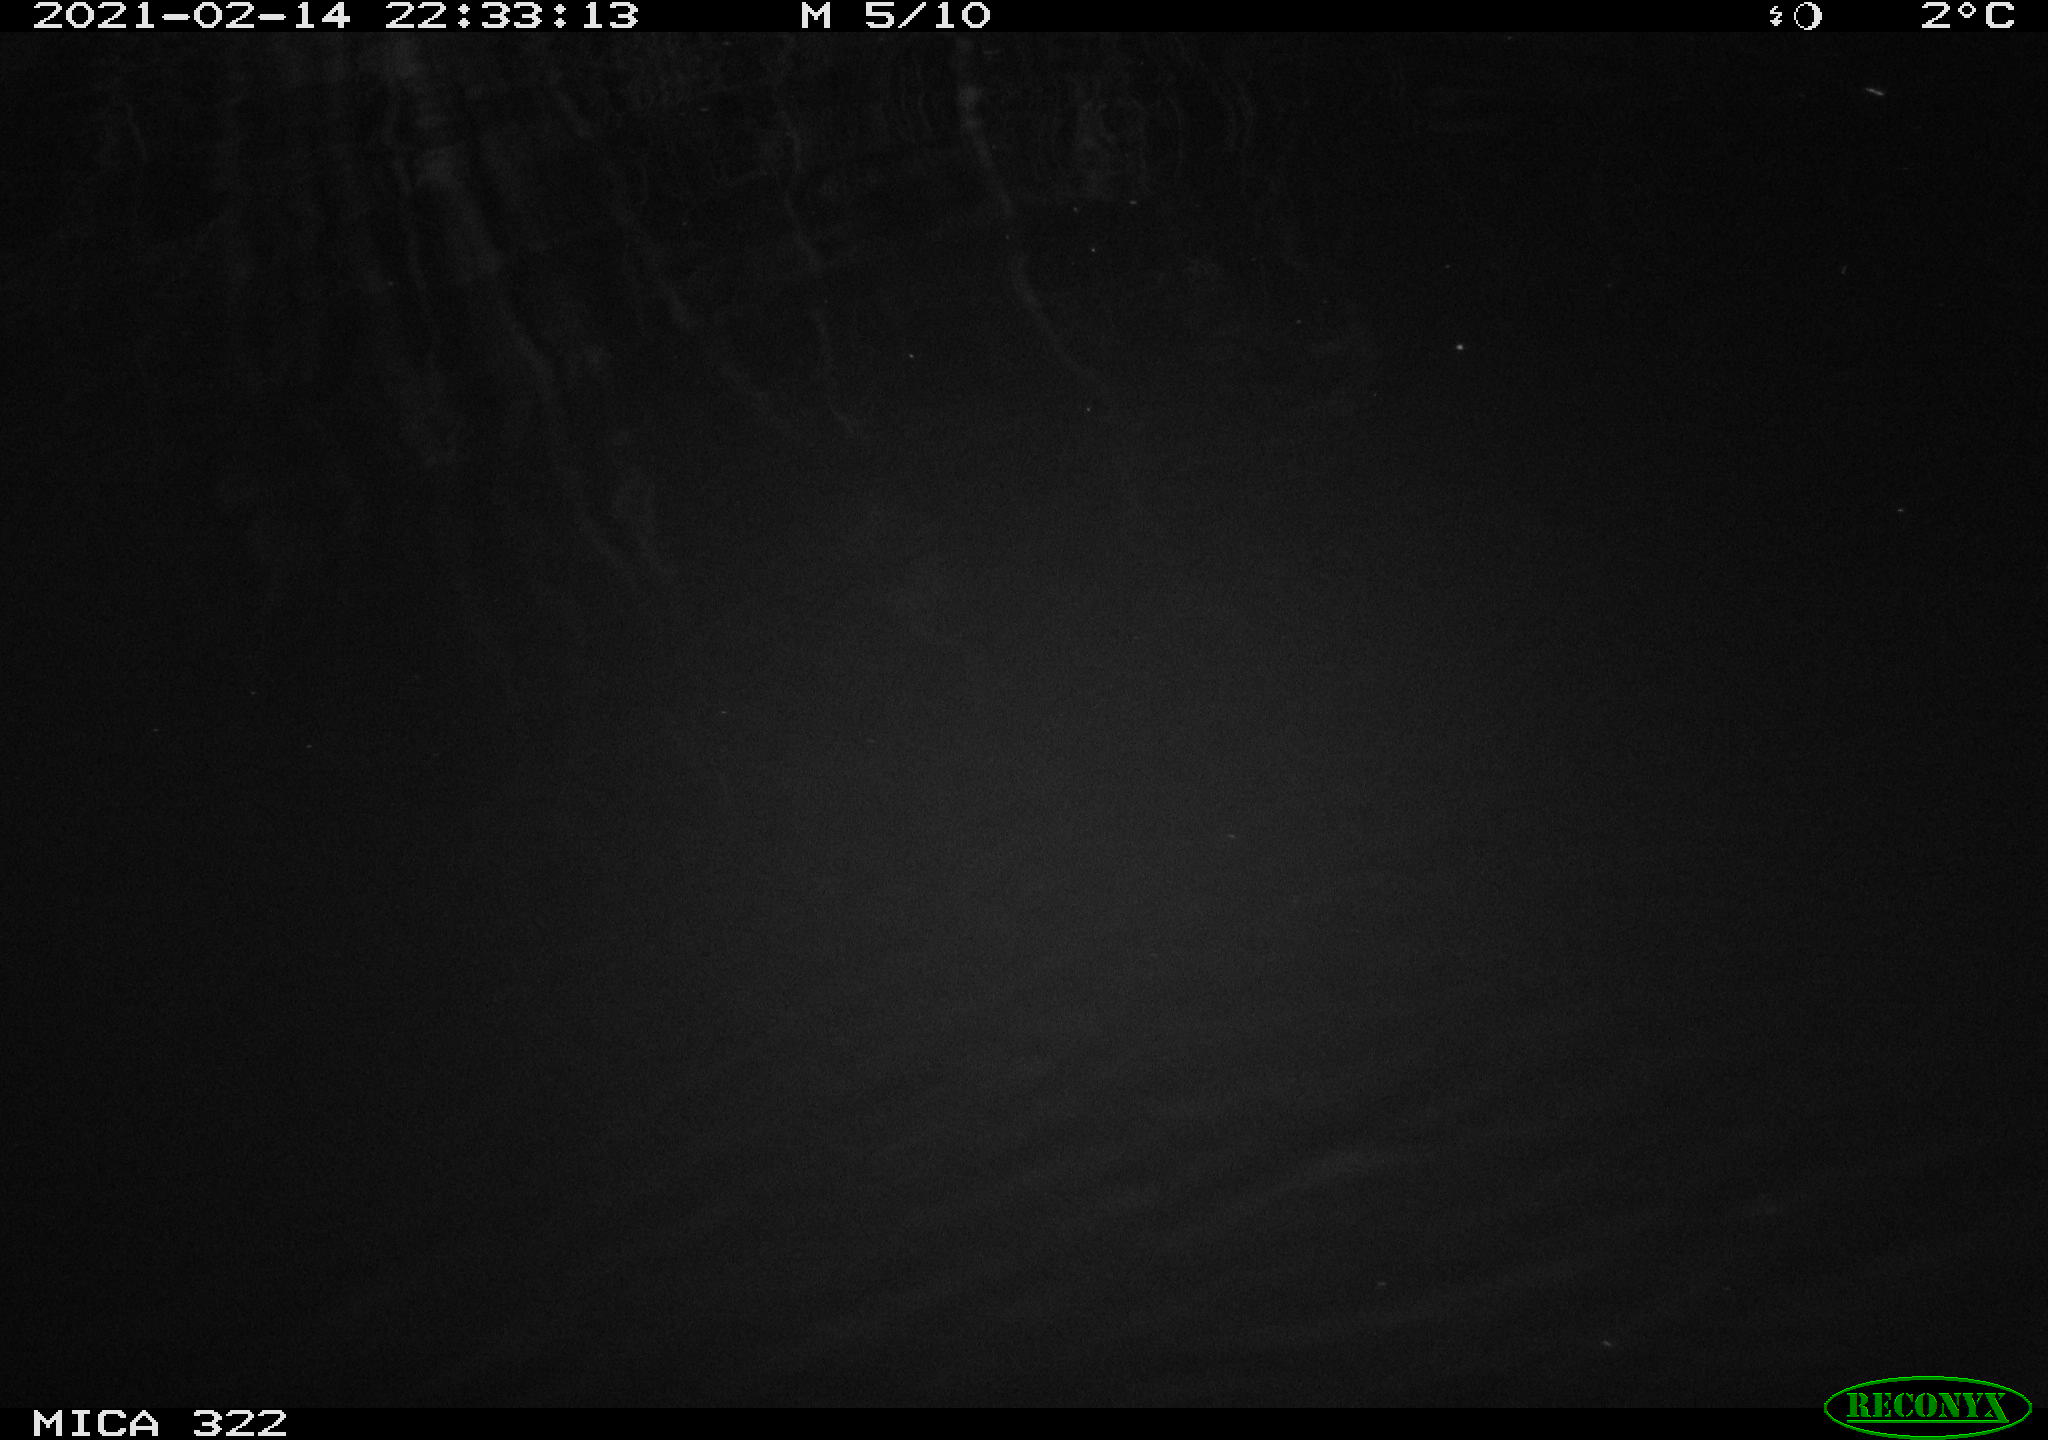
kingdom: Animalia
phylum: Chordata
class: Aves
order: Anseriformes
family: Anatidae
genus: Anas
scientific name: Anas platyrhynchos
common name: Mallard
